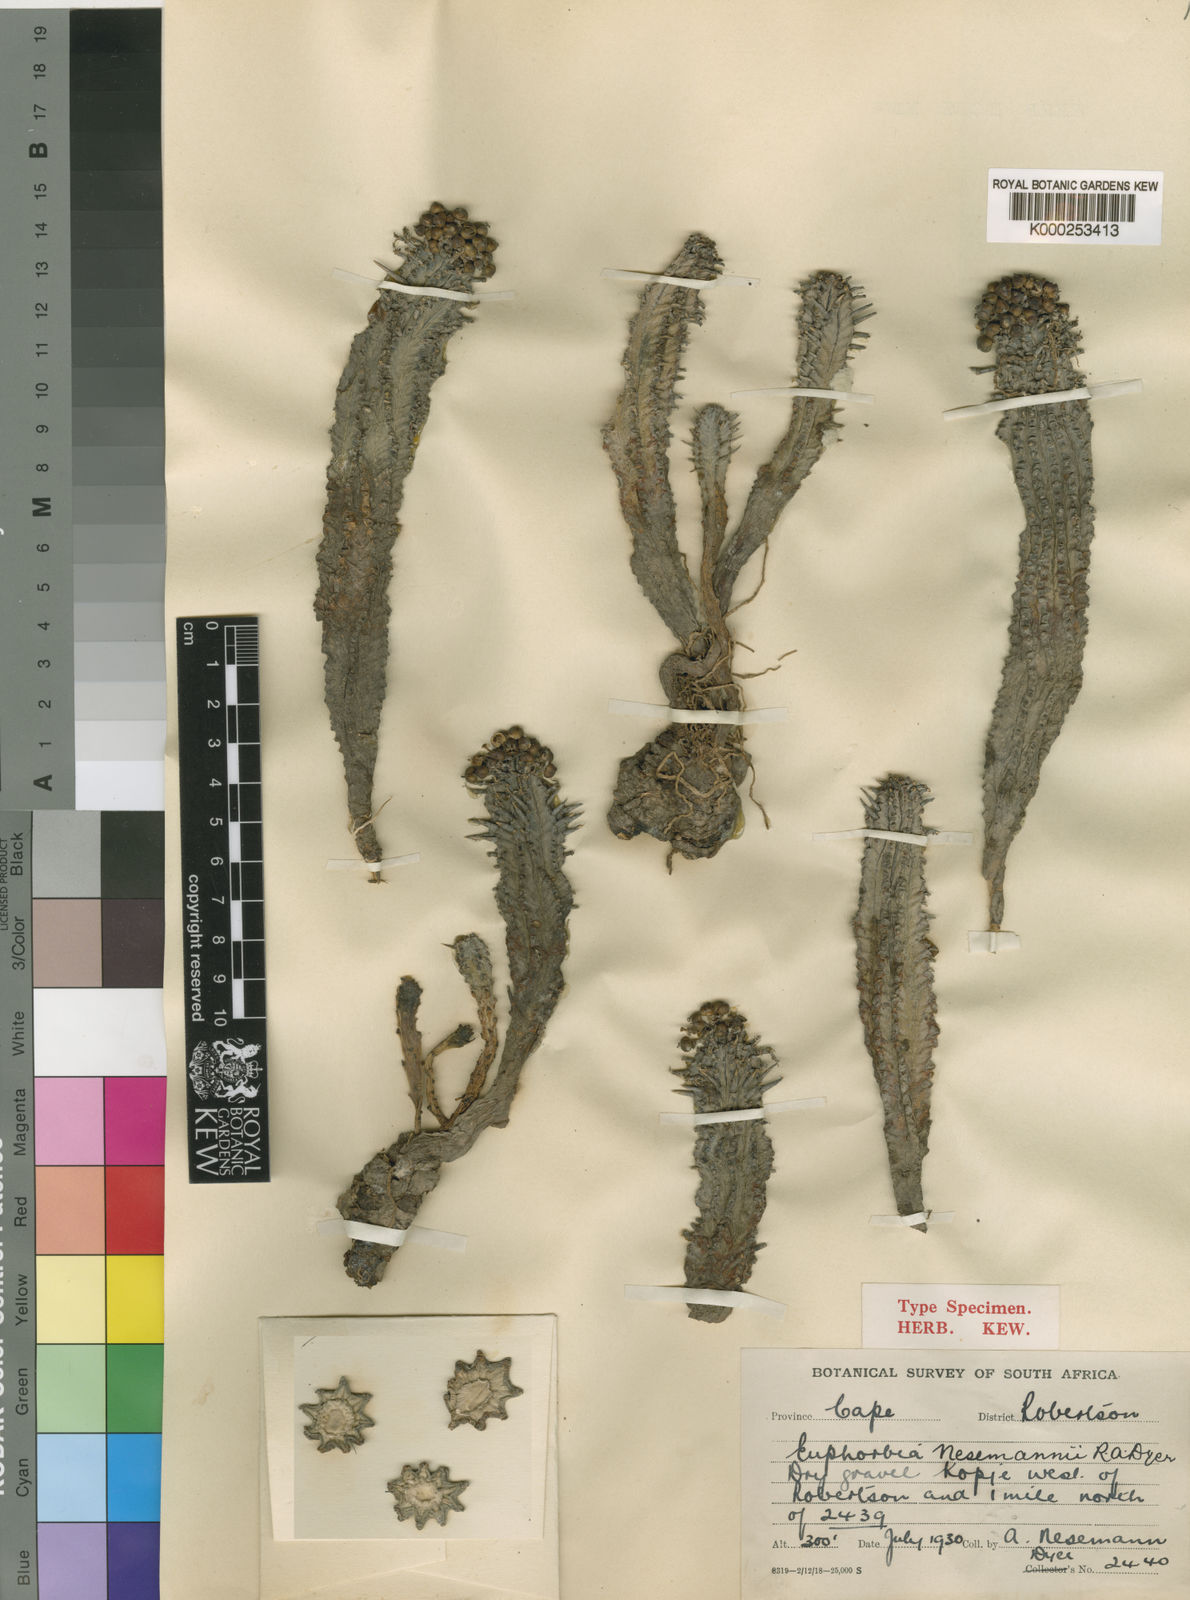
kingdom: Plantae
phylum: Tracheophyta
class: Magnoliopsida
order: Malpighiales
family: Euphorbiaceae
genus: Euphorbia
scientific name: Euphorbia mammillaris
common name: Corkscrew
